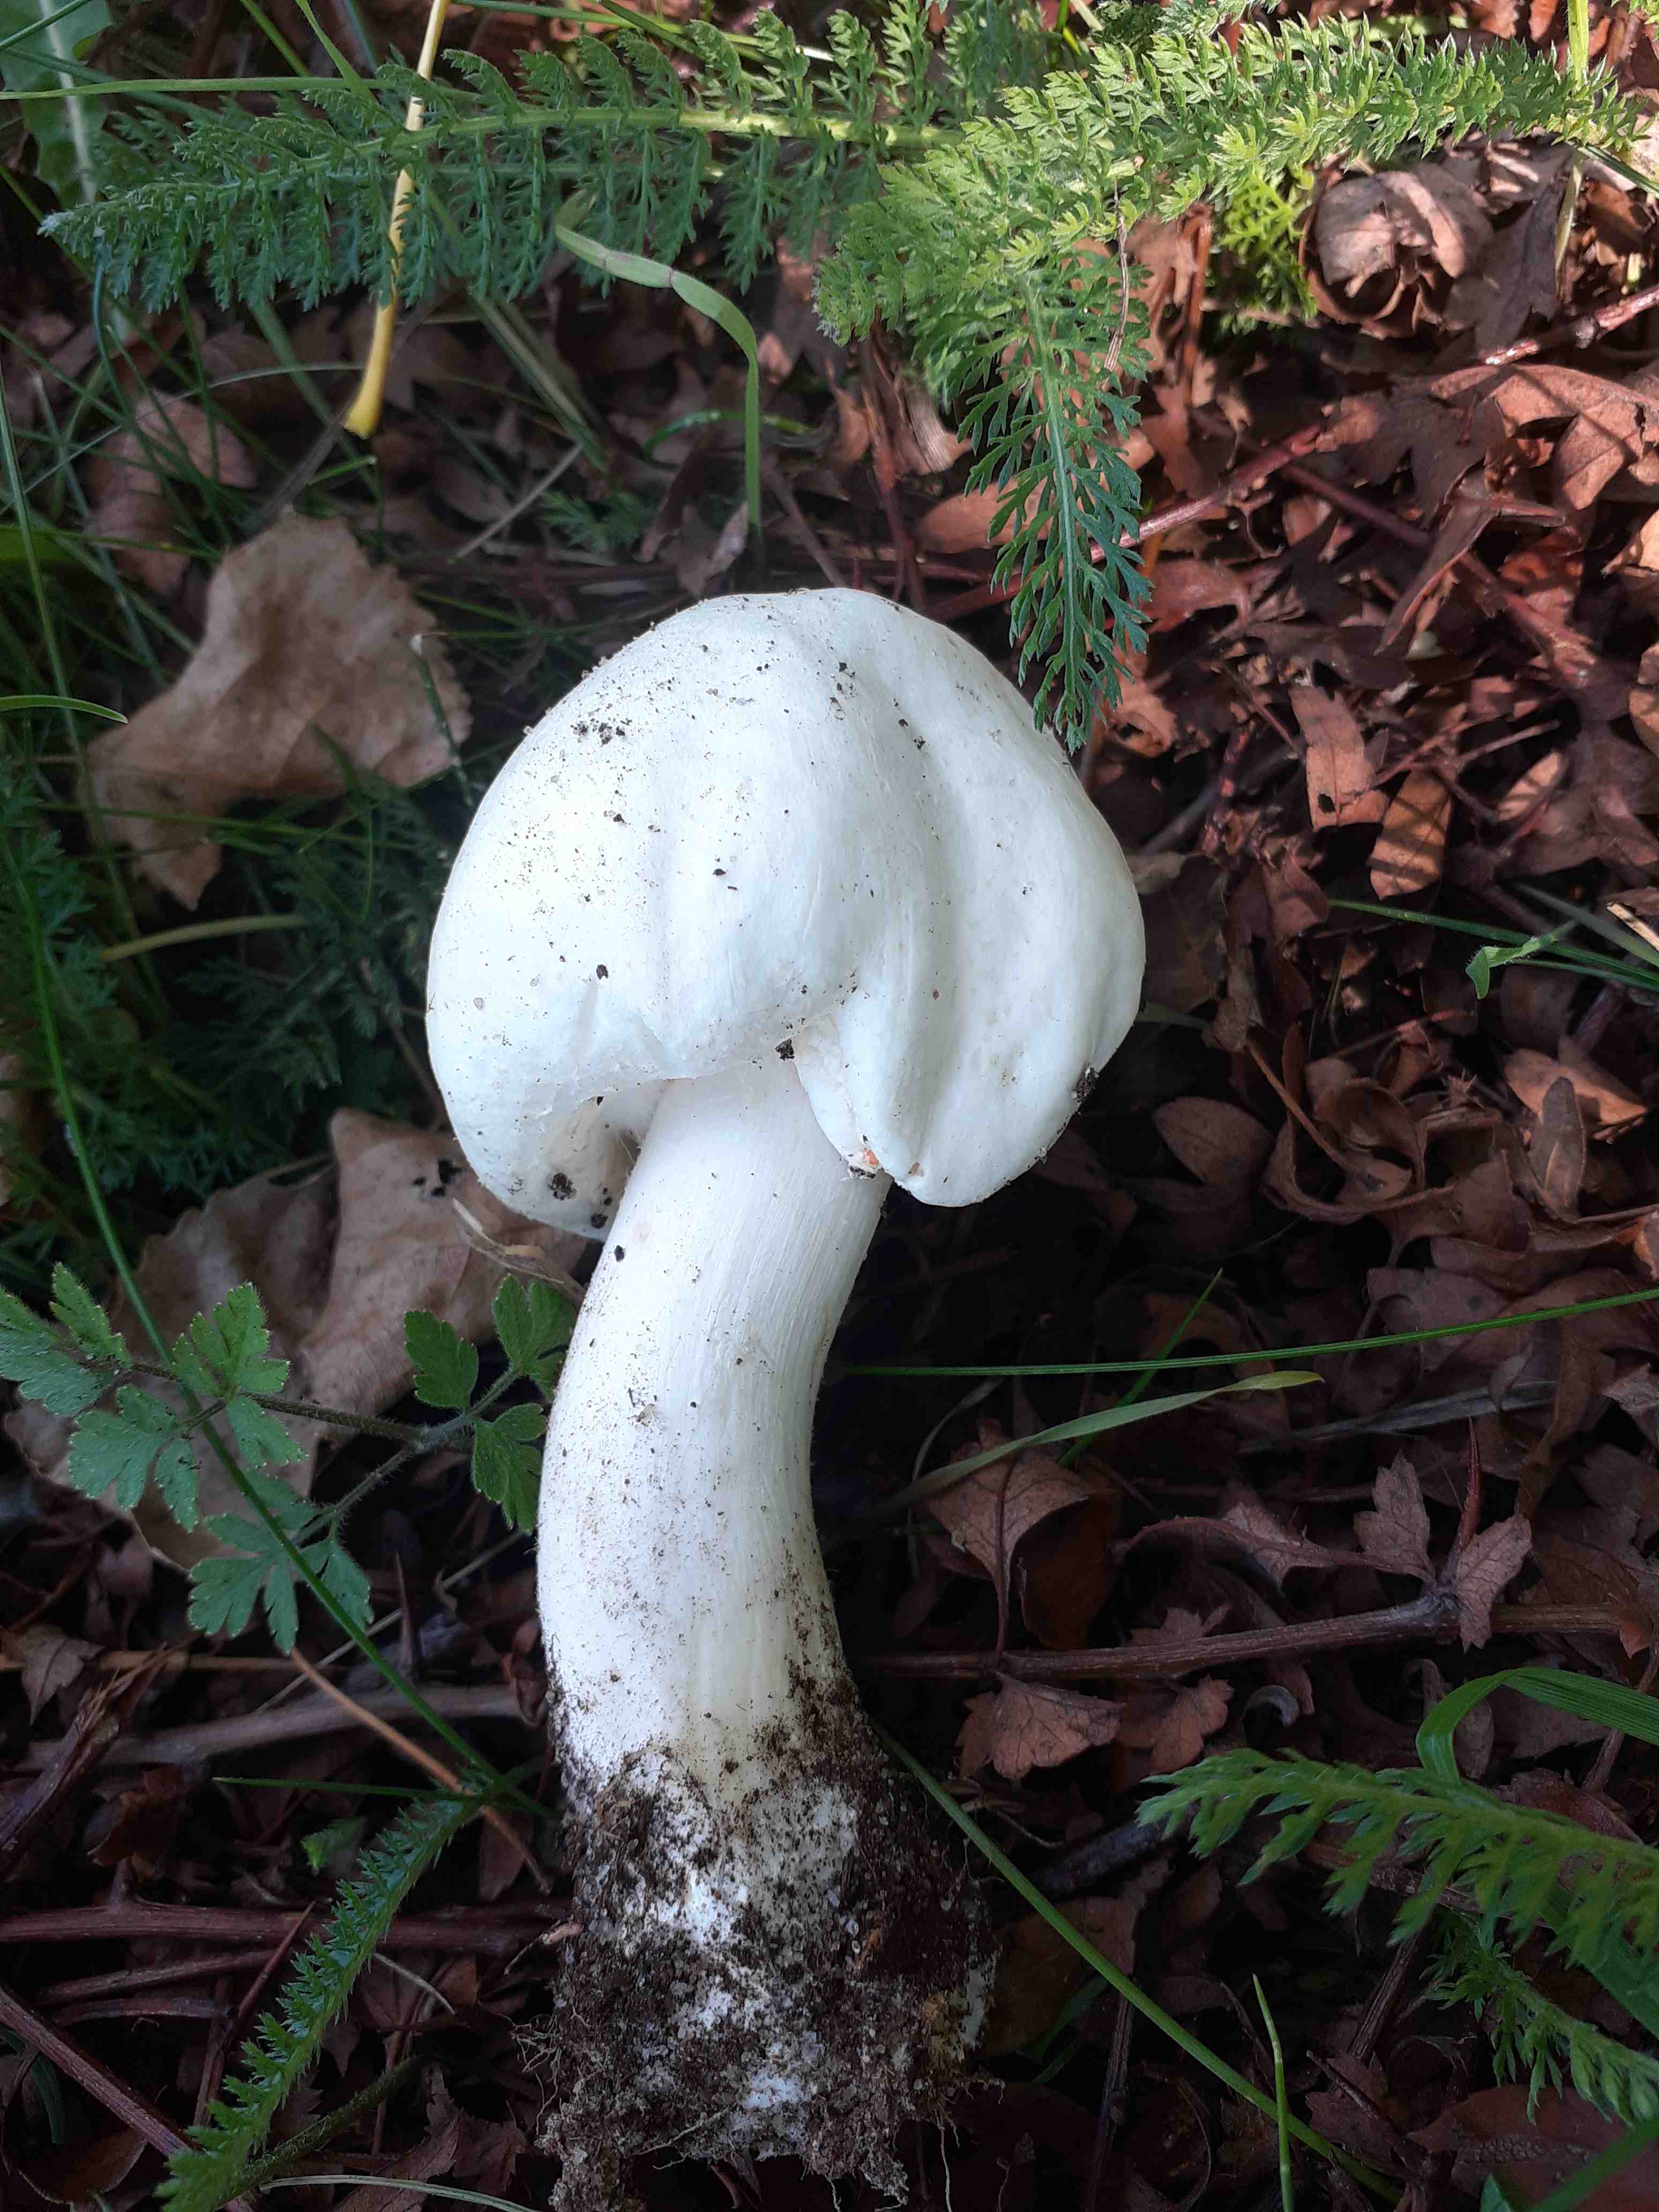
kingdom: Fungi
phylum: Basidiomycota
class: Agaricomycetes
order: Agaricales
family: Agaricaceae
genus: Agaricus
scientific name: Agaricus arvensis
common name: ager-champignon
